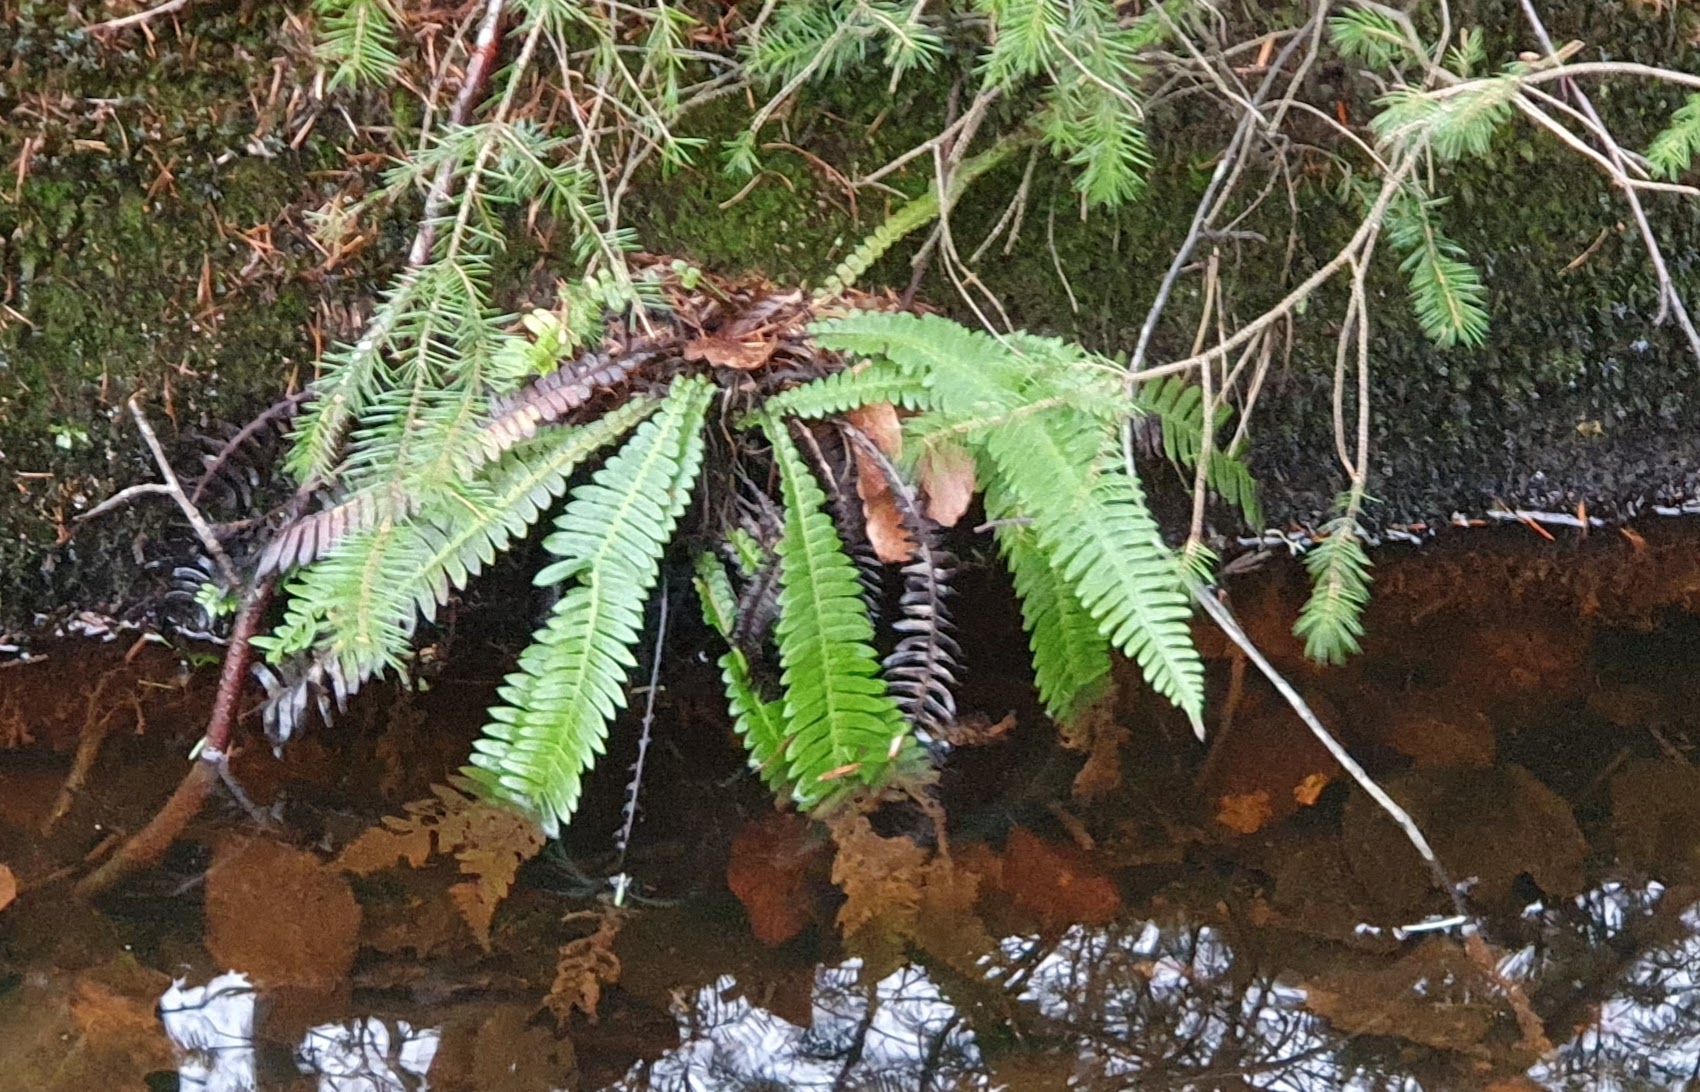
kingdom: Plantae
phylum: Tracheophyta
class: Polypodiopsida
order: Polypodiales
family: Blechnaceae
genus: Struthiopteris
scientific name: Struthiopteris spicant
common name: Kambregne
